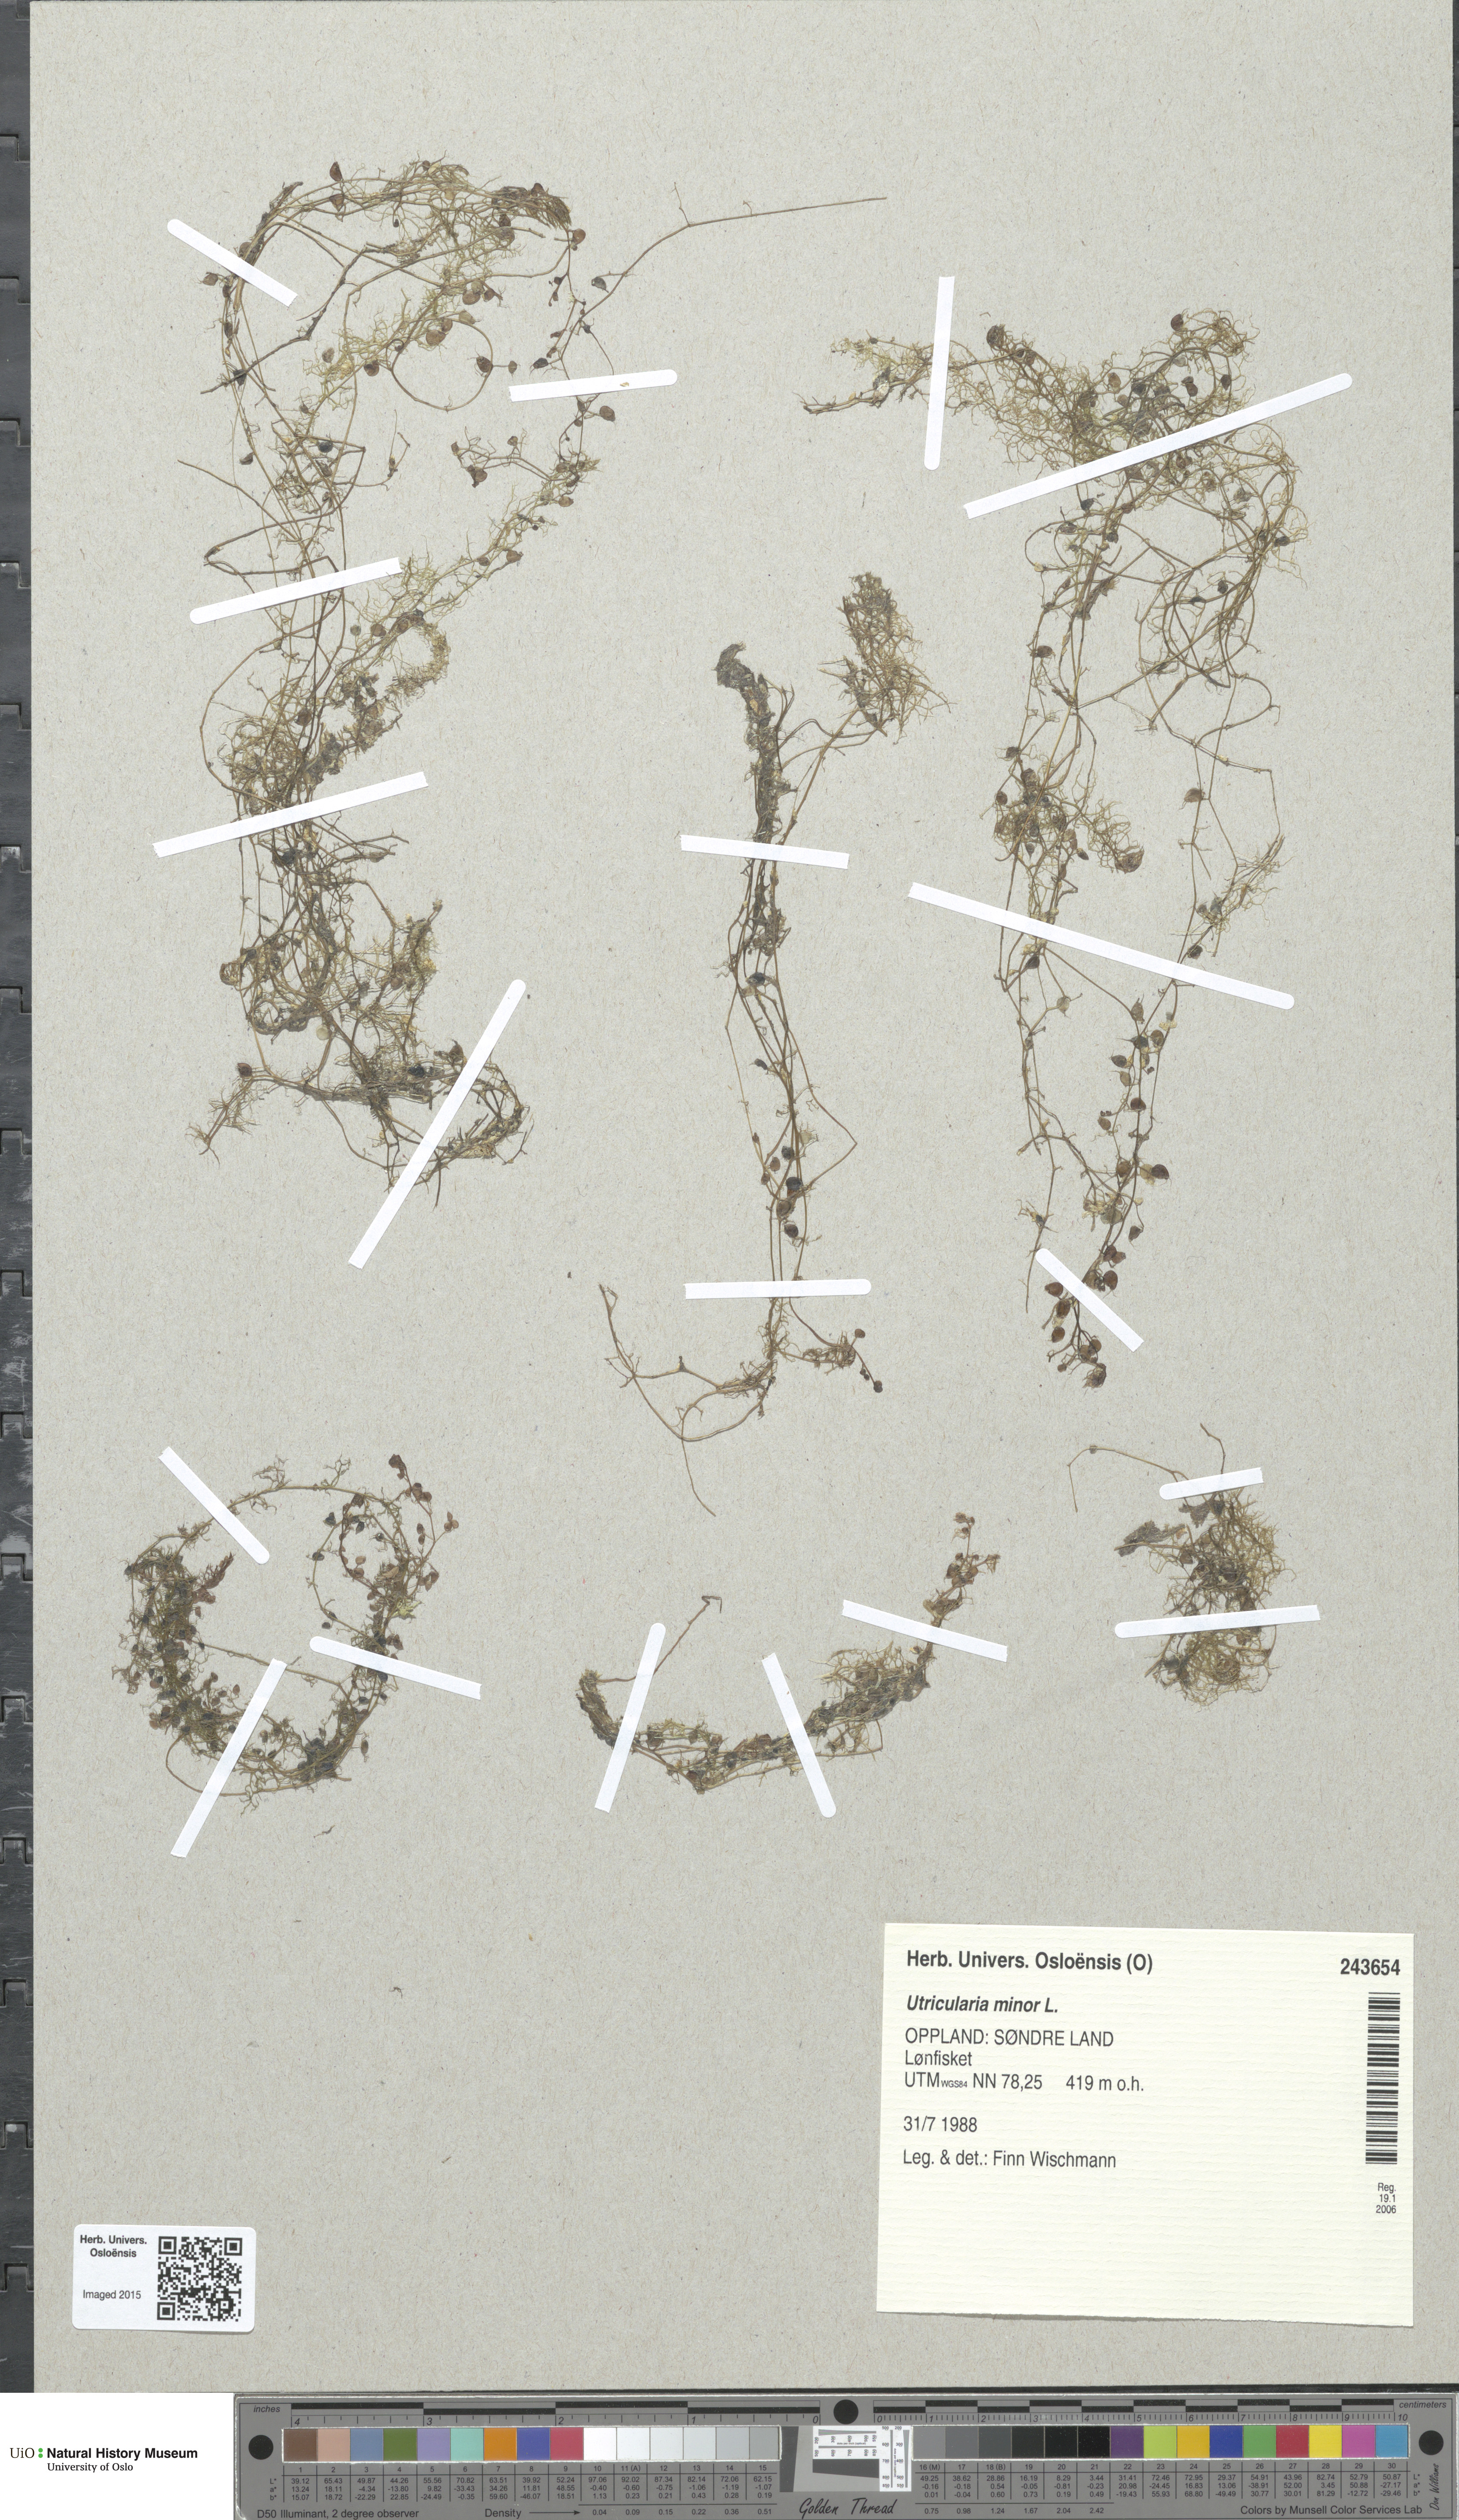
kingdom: Plantae
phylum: Tracheophyta
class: Magnoliopsida
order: Lamiales
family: Lentibulariaceae
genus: Utricularia
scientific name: Utricularia minor
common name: Lesser bladderwort
